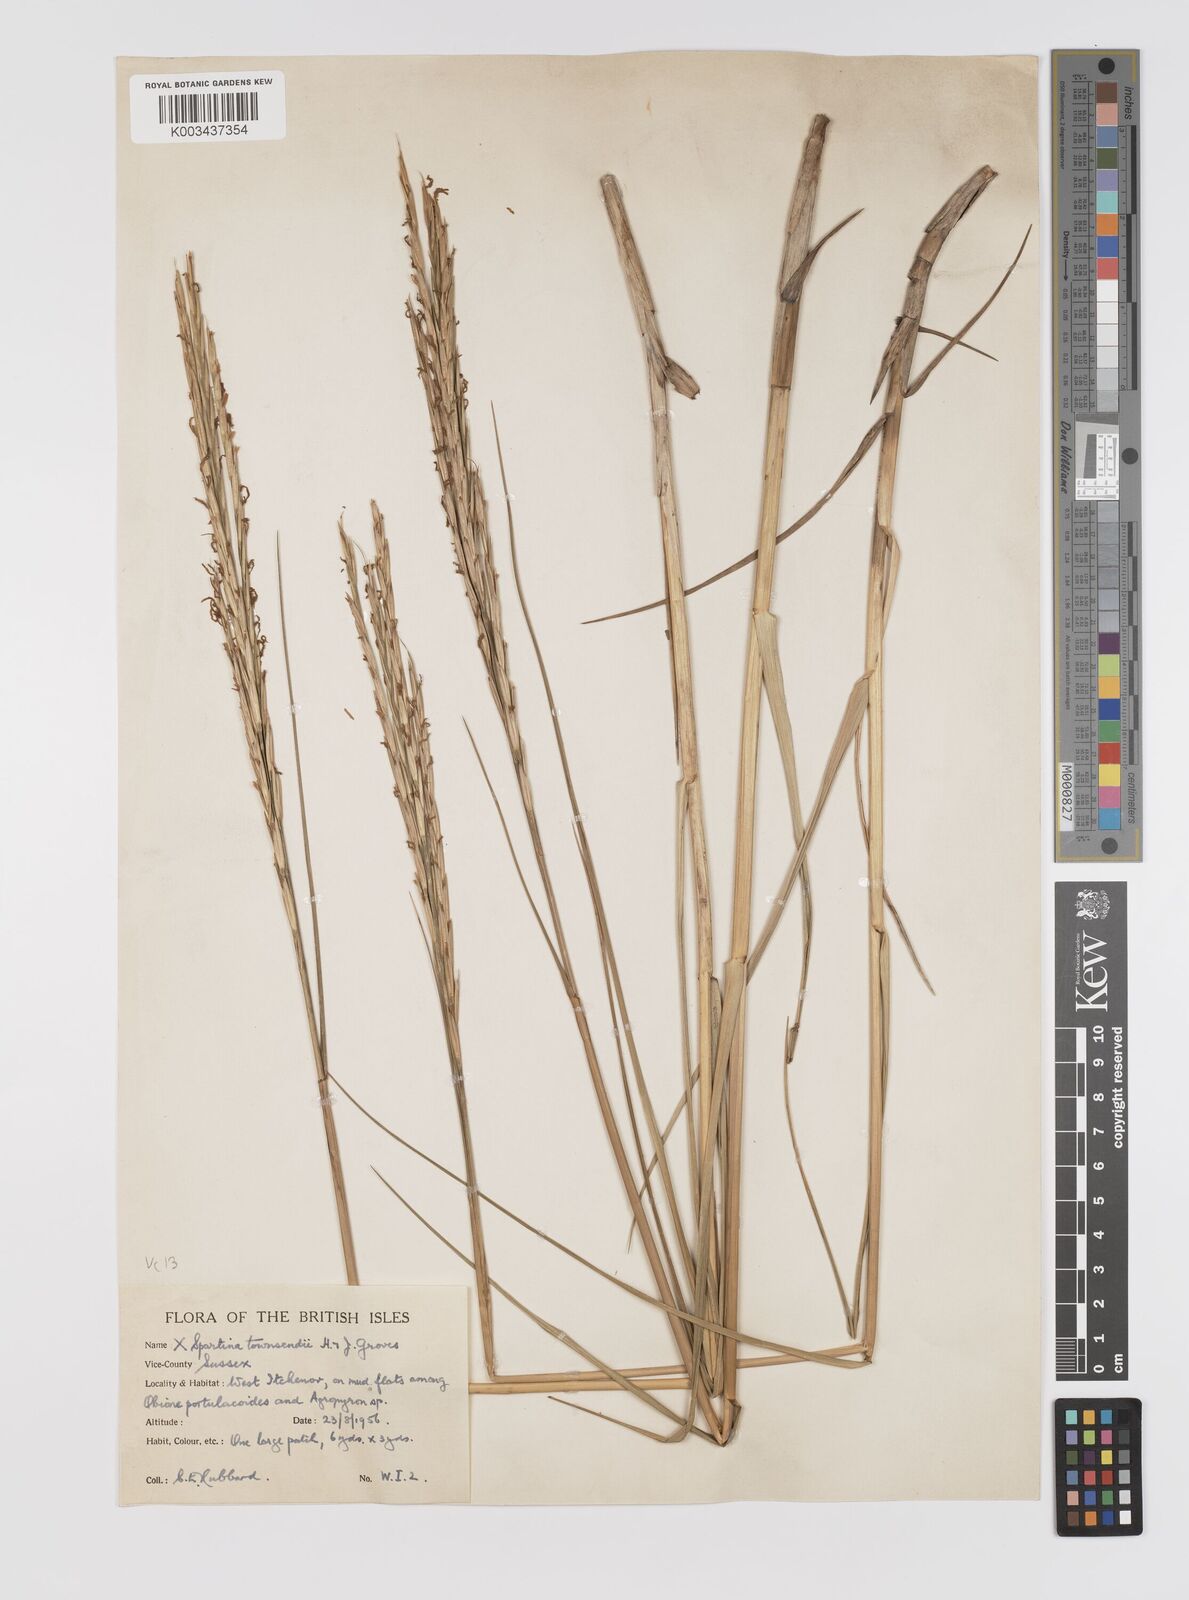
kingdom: Plantae
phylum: Tracheophyta
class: Liliopsida
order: Poales
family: Poaceae
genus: Sporobolus
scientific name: Sporobolus townsendii
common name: Townsend's cordgrass
